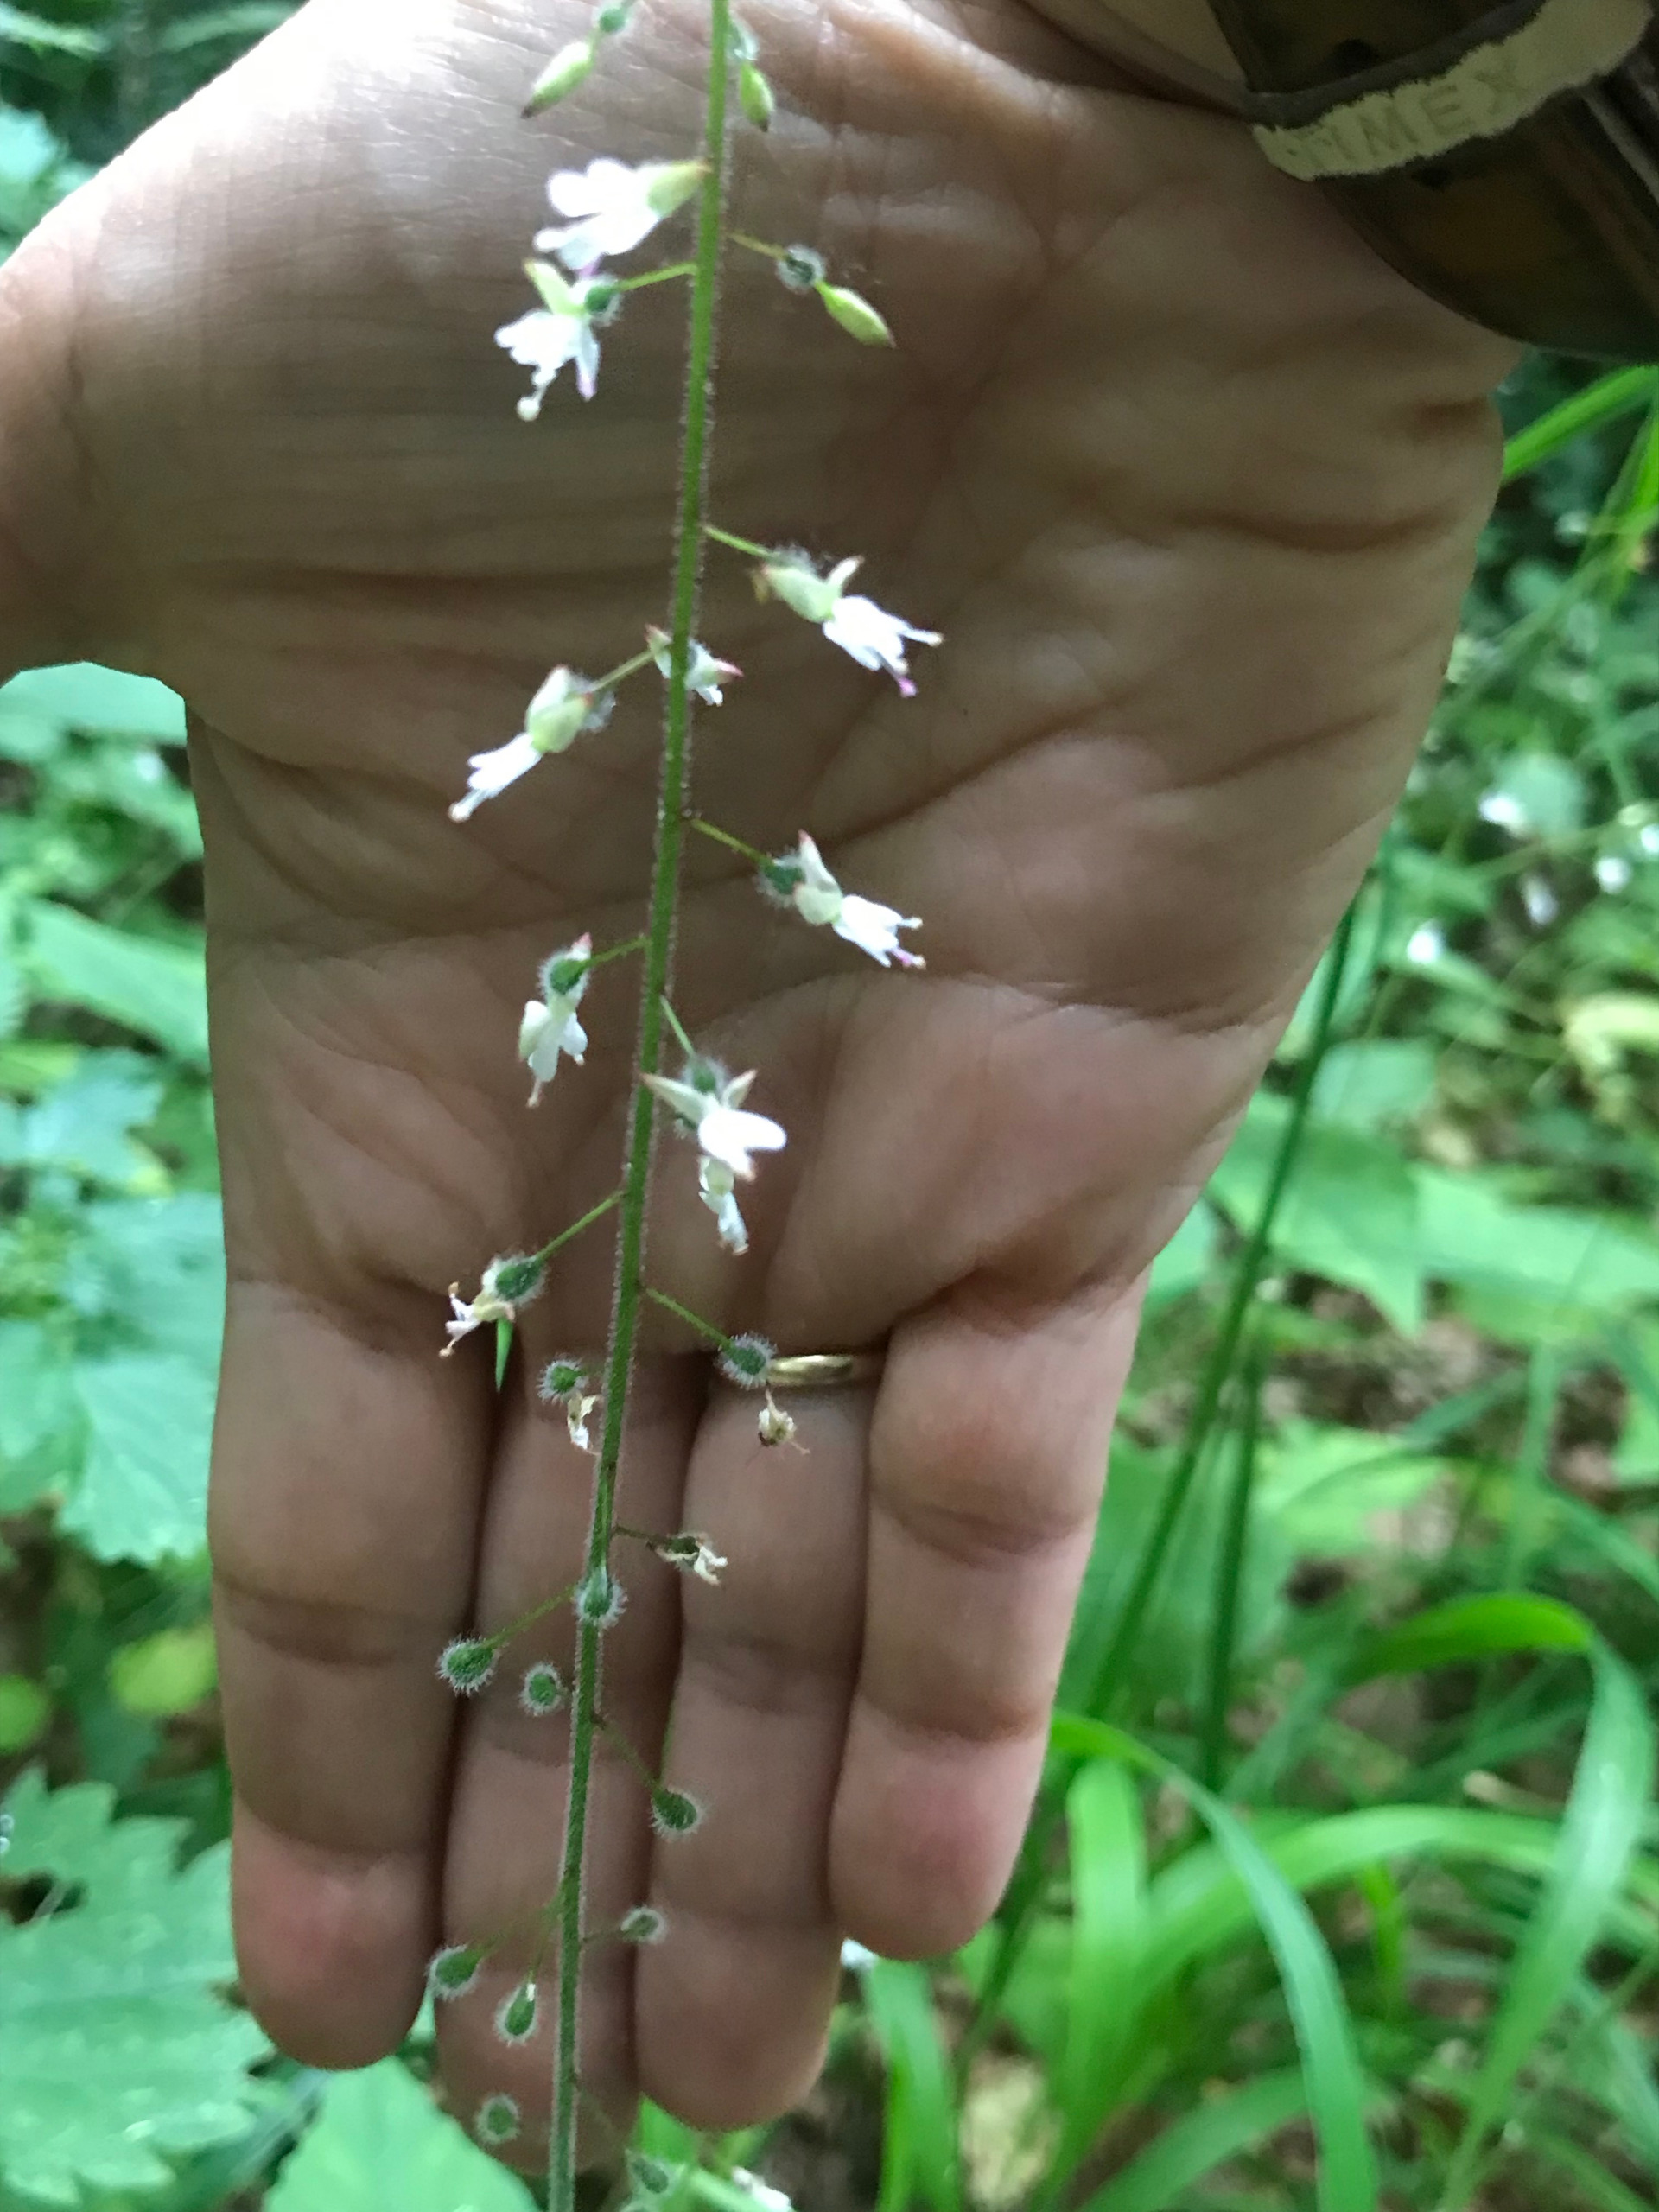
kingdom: Plantae
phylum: Tracheophyta
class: Magnoliopsida
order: Myrtales
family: Onagraceae
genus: Circaea
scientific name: Circaea lutetiana
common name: Dunet steffensurt
